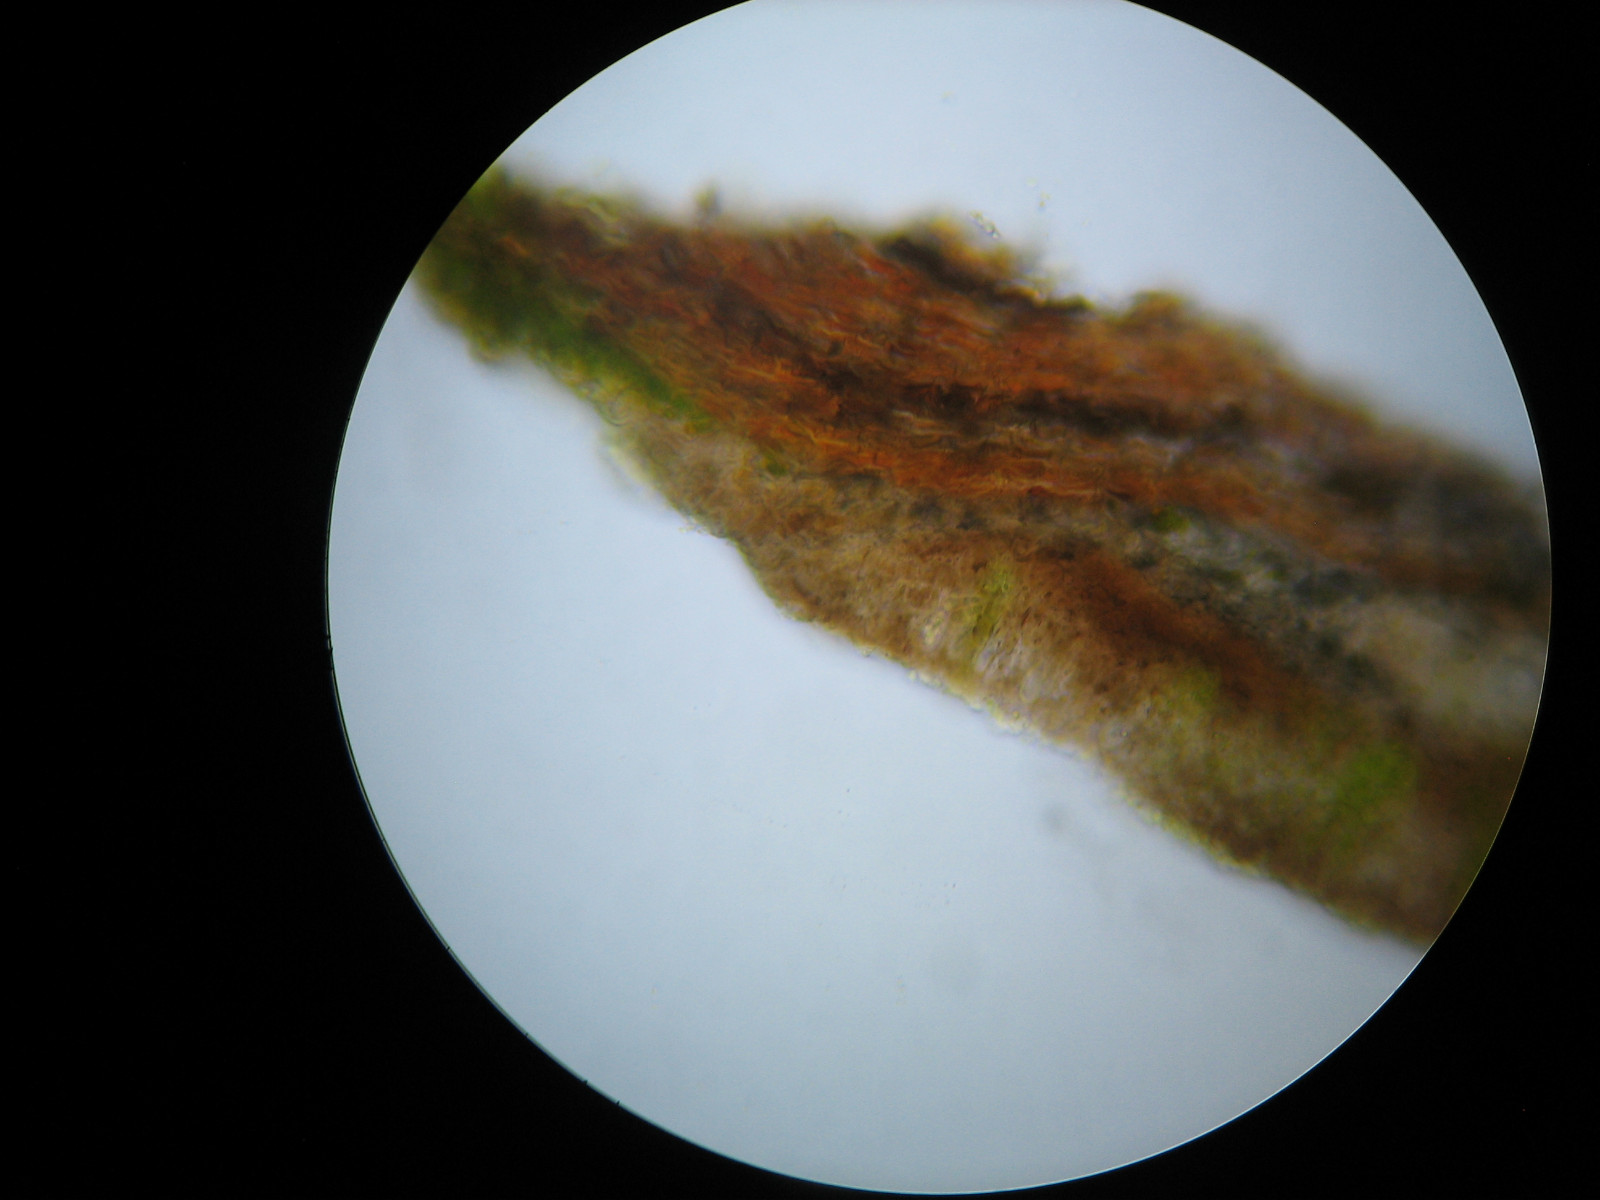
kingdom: Fungi
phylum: Ascomycota
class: Arthoniomycetes
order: Arthoniales
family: Arthoniaceae
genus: Diarthonis
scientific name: Diarthonis spadicea
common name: skygge-pletlav
